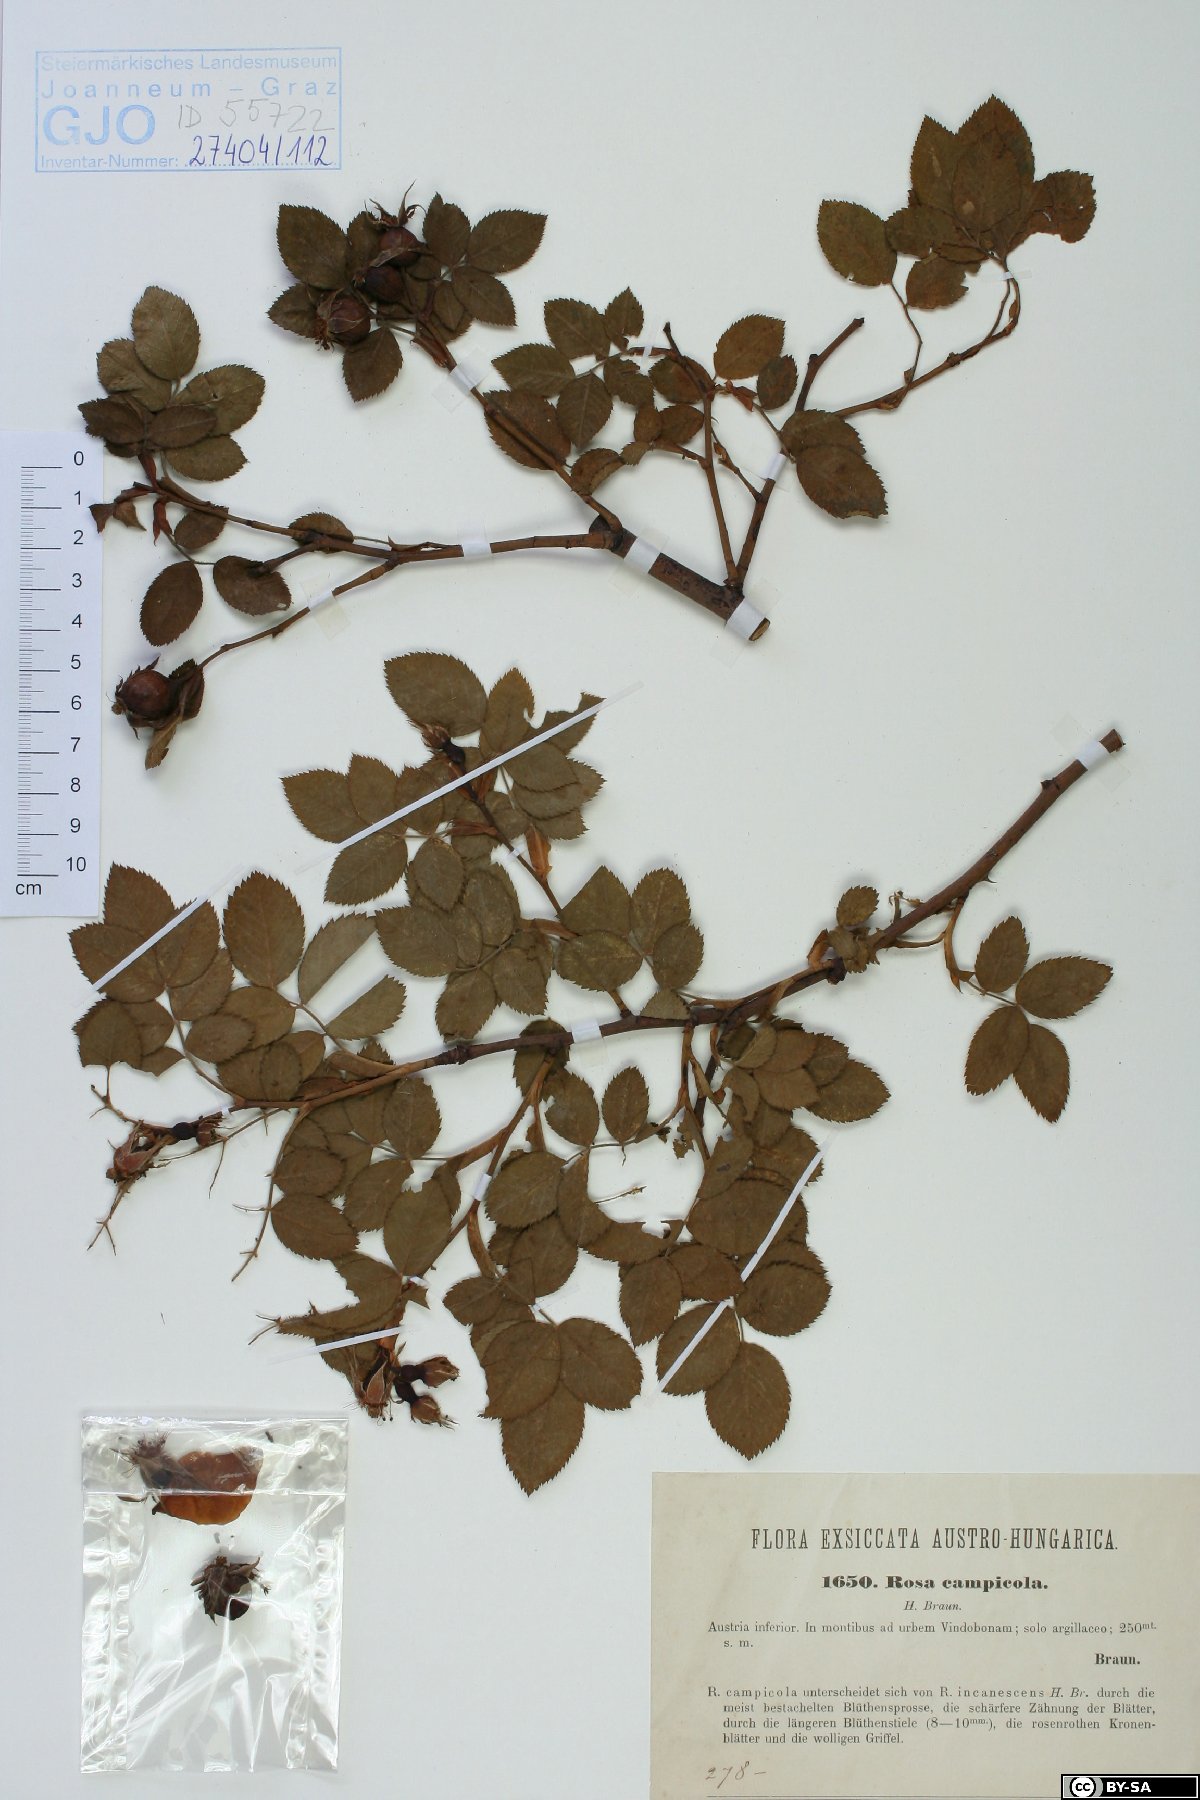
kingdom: Plantae
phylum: Tracheophyta
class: Magnoliopsida
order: Rosales
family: Rosaceae
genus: Rosa
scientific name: Rosa caesia
